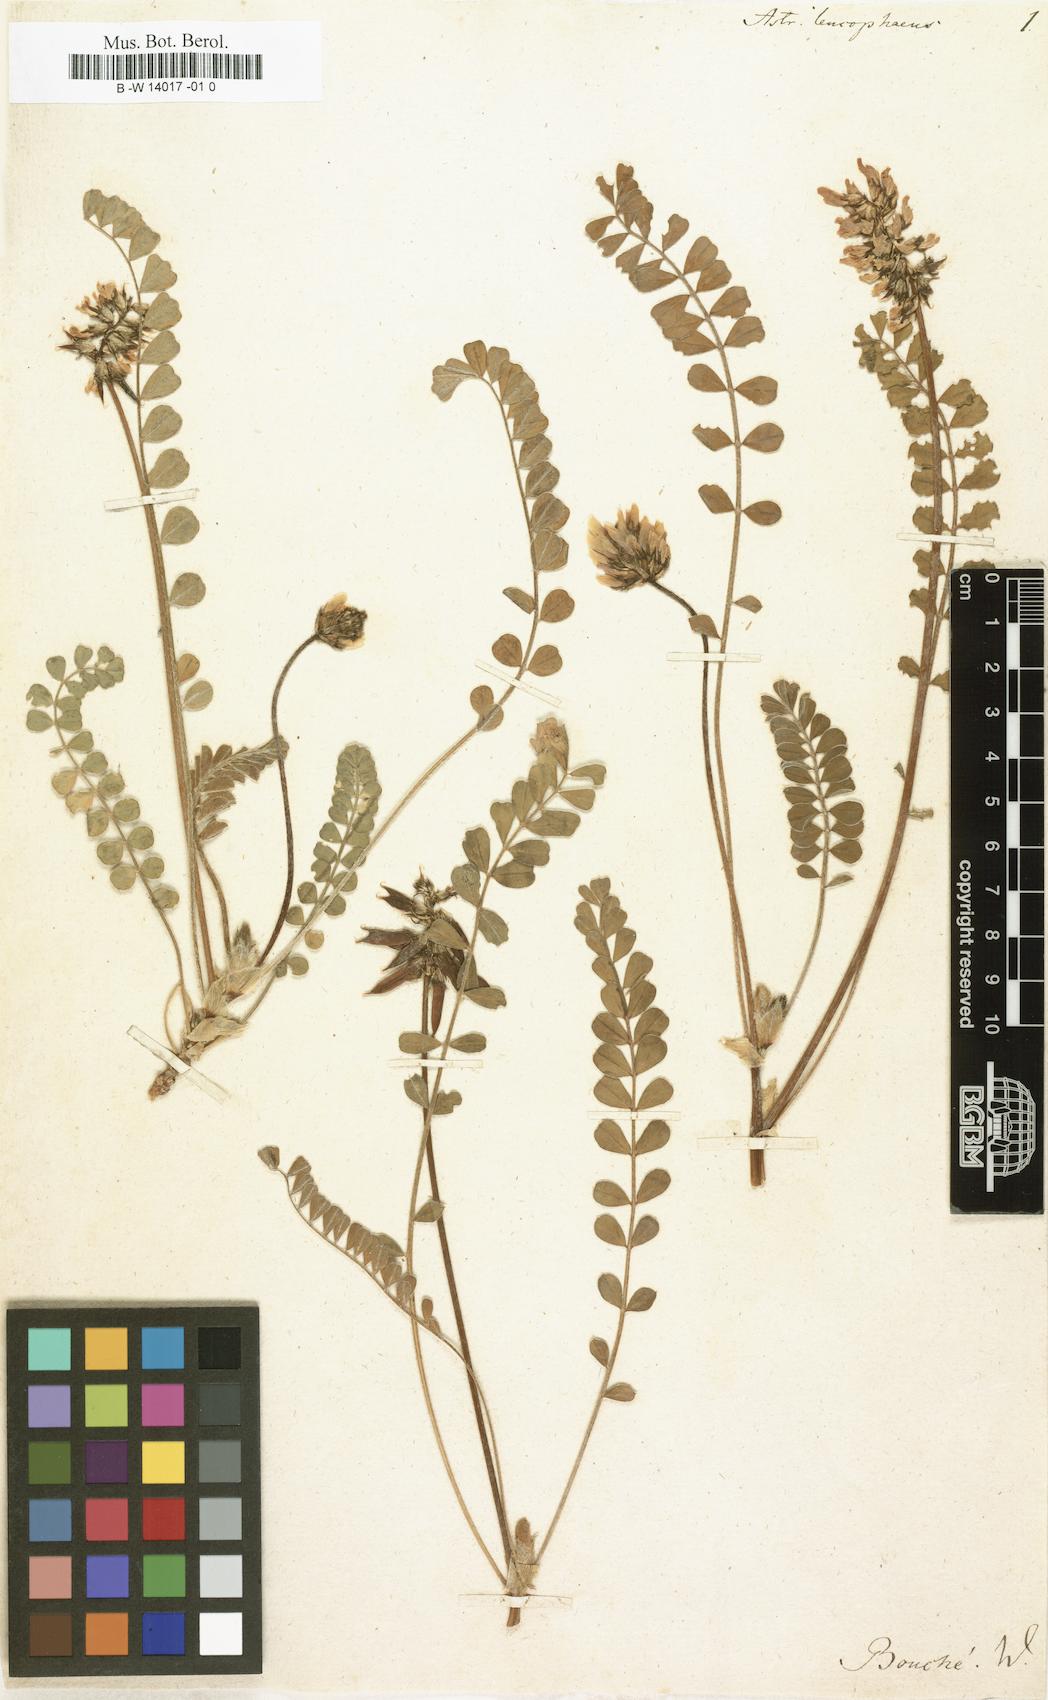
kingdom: Plantae
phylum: Tracheophyta
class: Magnoliopsida
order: Fabales
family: Fabaceae
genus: Astragalus
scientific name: Astragalus depressus
